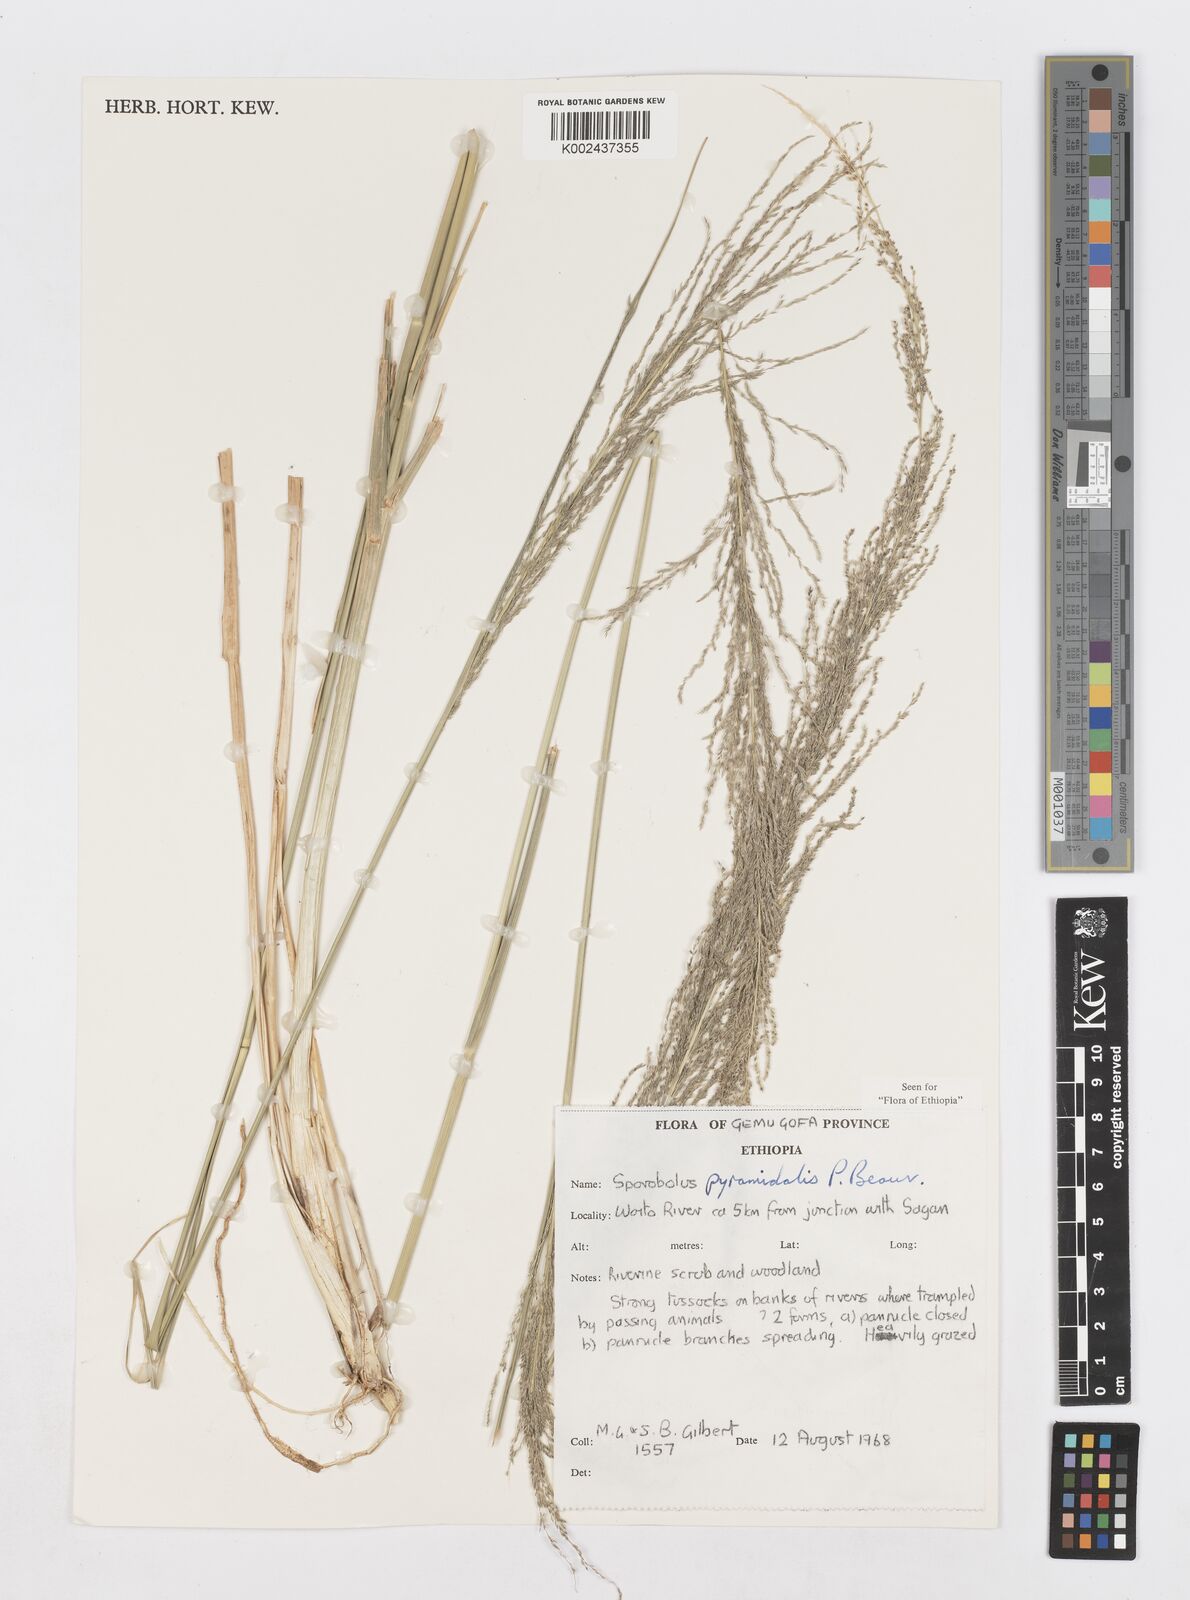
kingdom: Plantae
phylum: Tracheophyta
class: Liliopsida
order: Poales
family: Poaceae
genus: Sporobolus
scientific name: Sporobolus pyramidalis
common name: West indian dropseed
